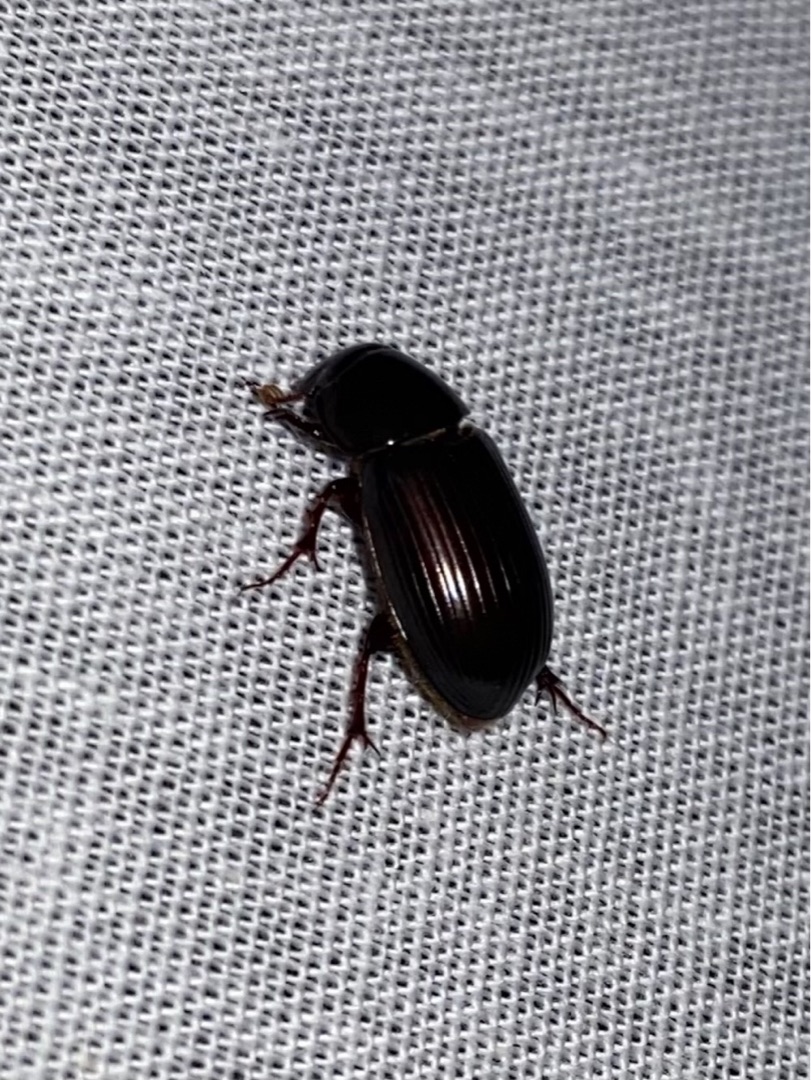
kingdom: Animalia
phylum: Arthropoda
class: Insecta
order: Coleoptera
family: Scarabaeidae
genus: Acrossus
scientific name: Acrossus rufipes
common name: Rødbenet møgbille
